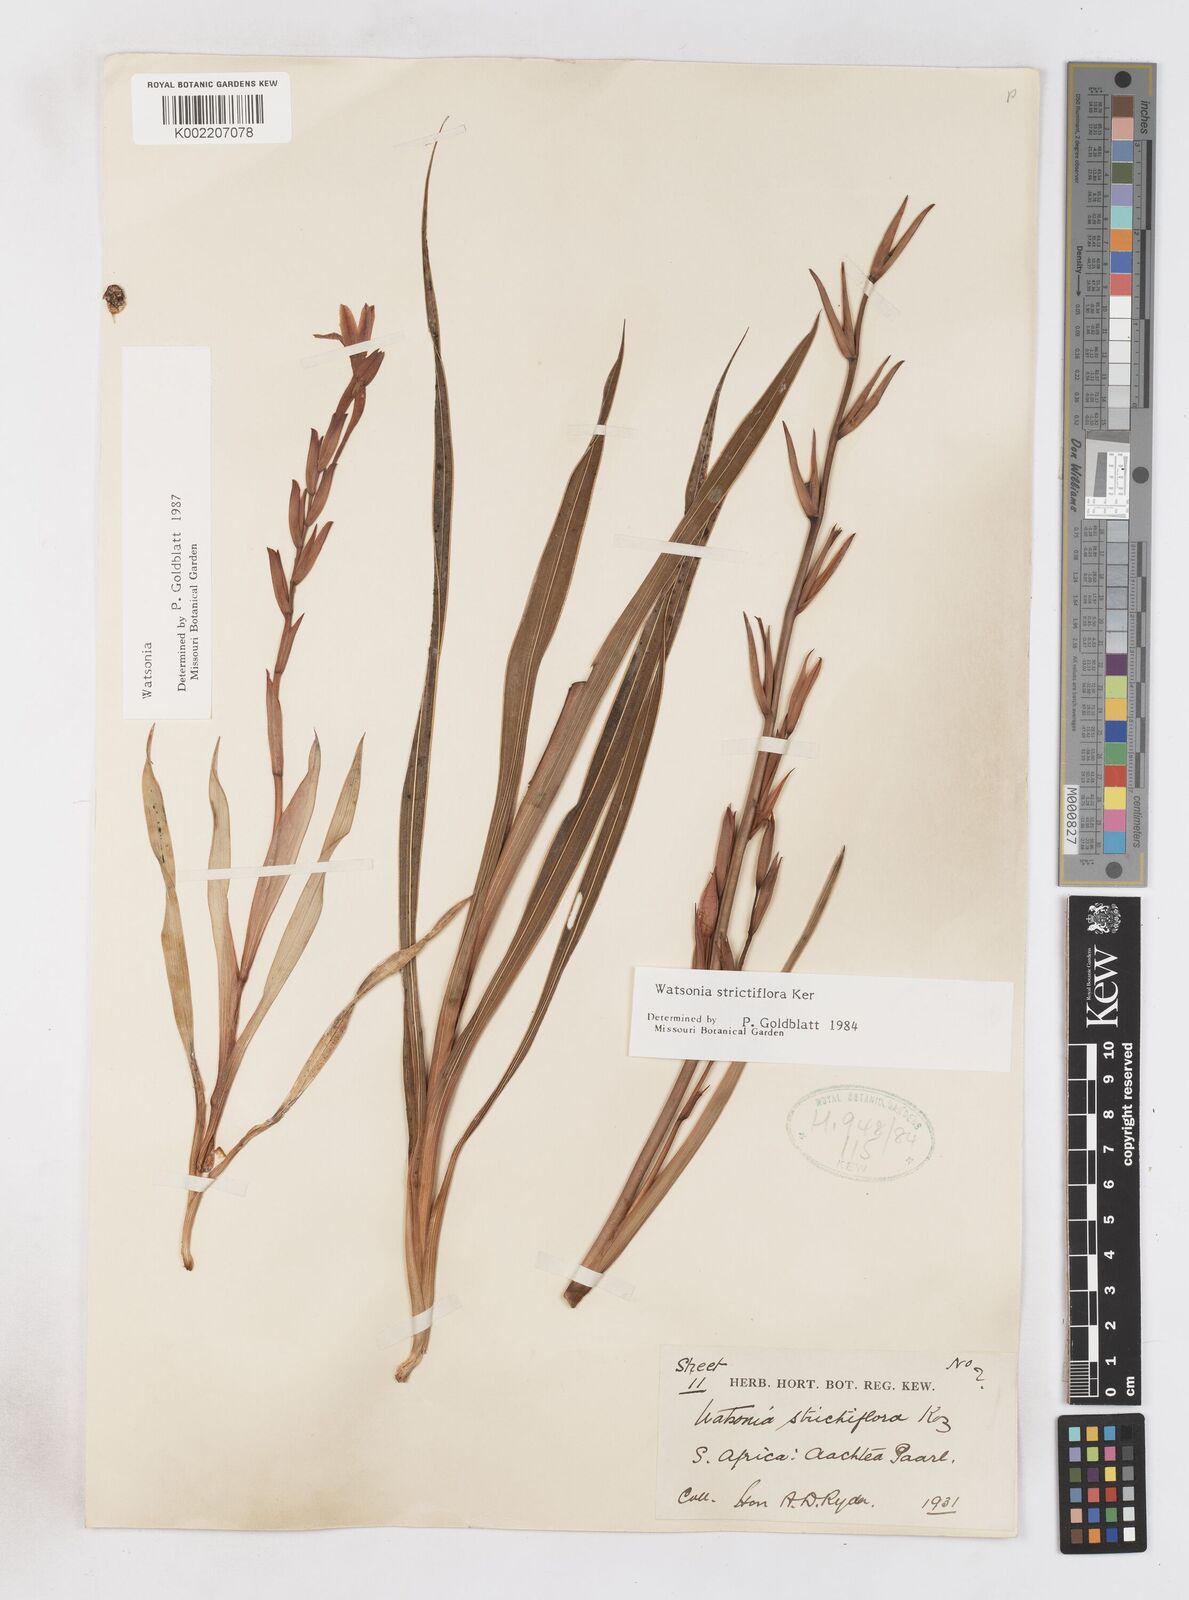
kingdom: Plantae
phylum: Tracheophyta
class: Liliopsida
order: Asparagales
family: Iridaceae
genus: Watsonia
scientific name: Watsonia strictiflora
